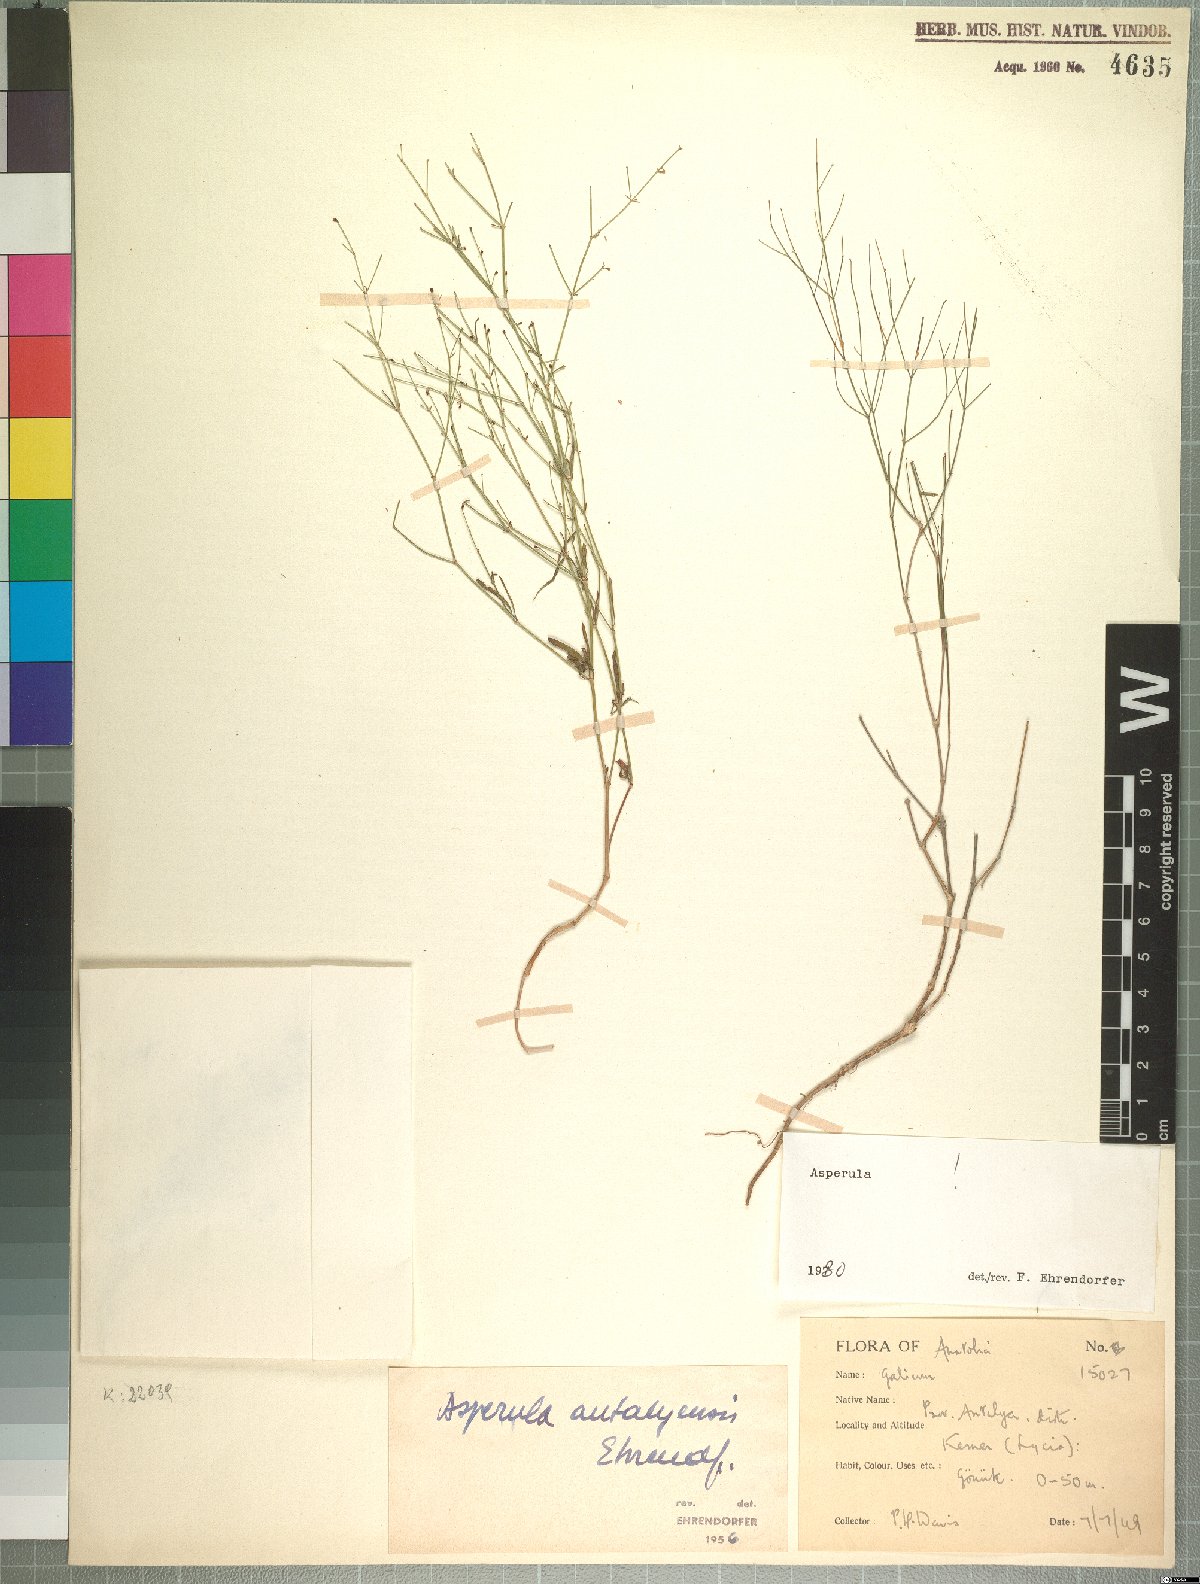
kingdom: Plantae
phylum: Tracheophyta
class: Magnoliopsida
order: Gentianales
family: Rubiaceae
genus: Thliphthisa
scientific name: Thliphthisa antalyensis
